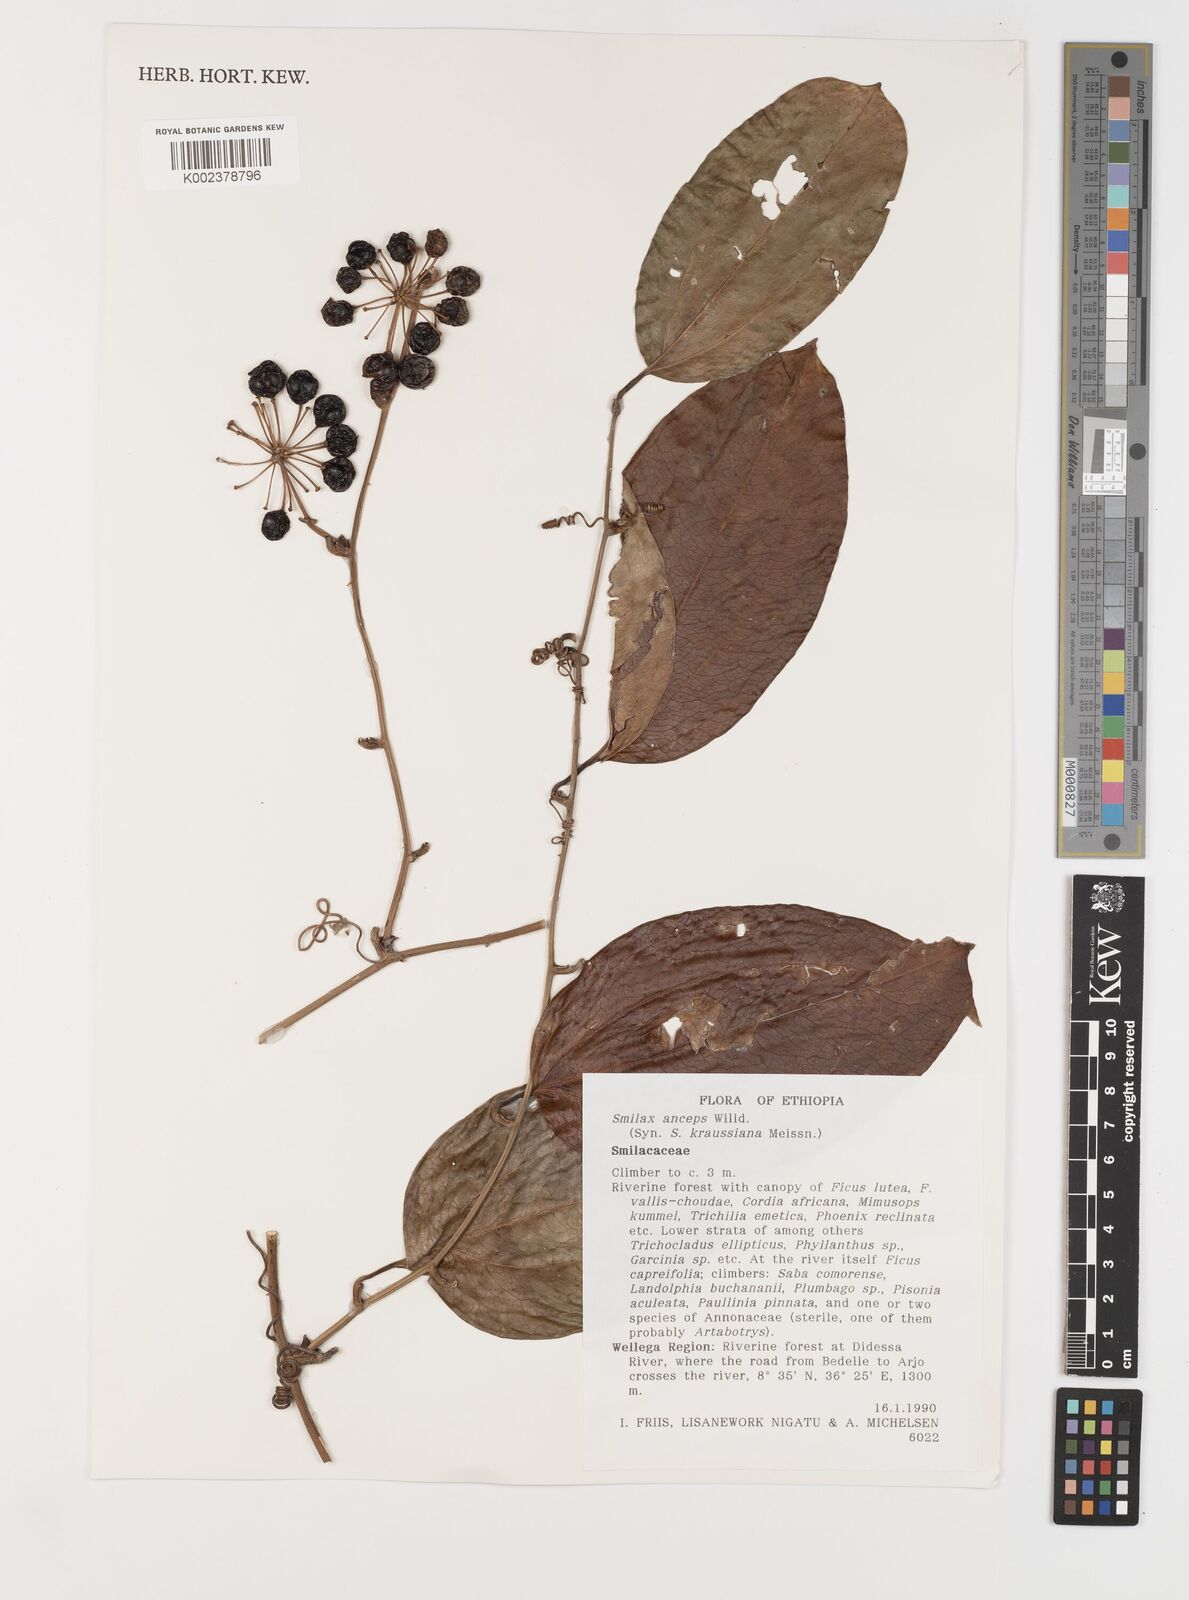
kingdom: Plantae
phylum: Tracheophyta
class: Liliopsida
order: Liliales
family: Smilacaceae
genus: Smilax
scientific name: Smilax anceps
